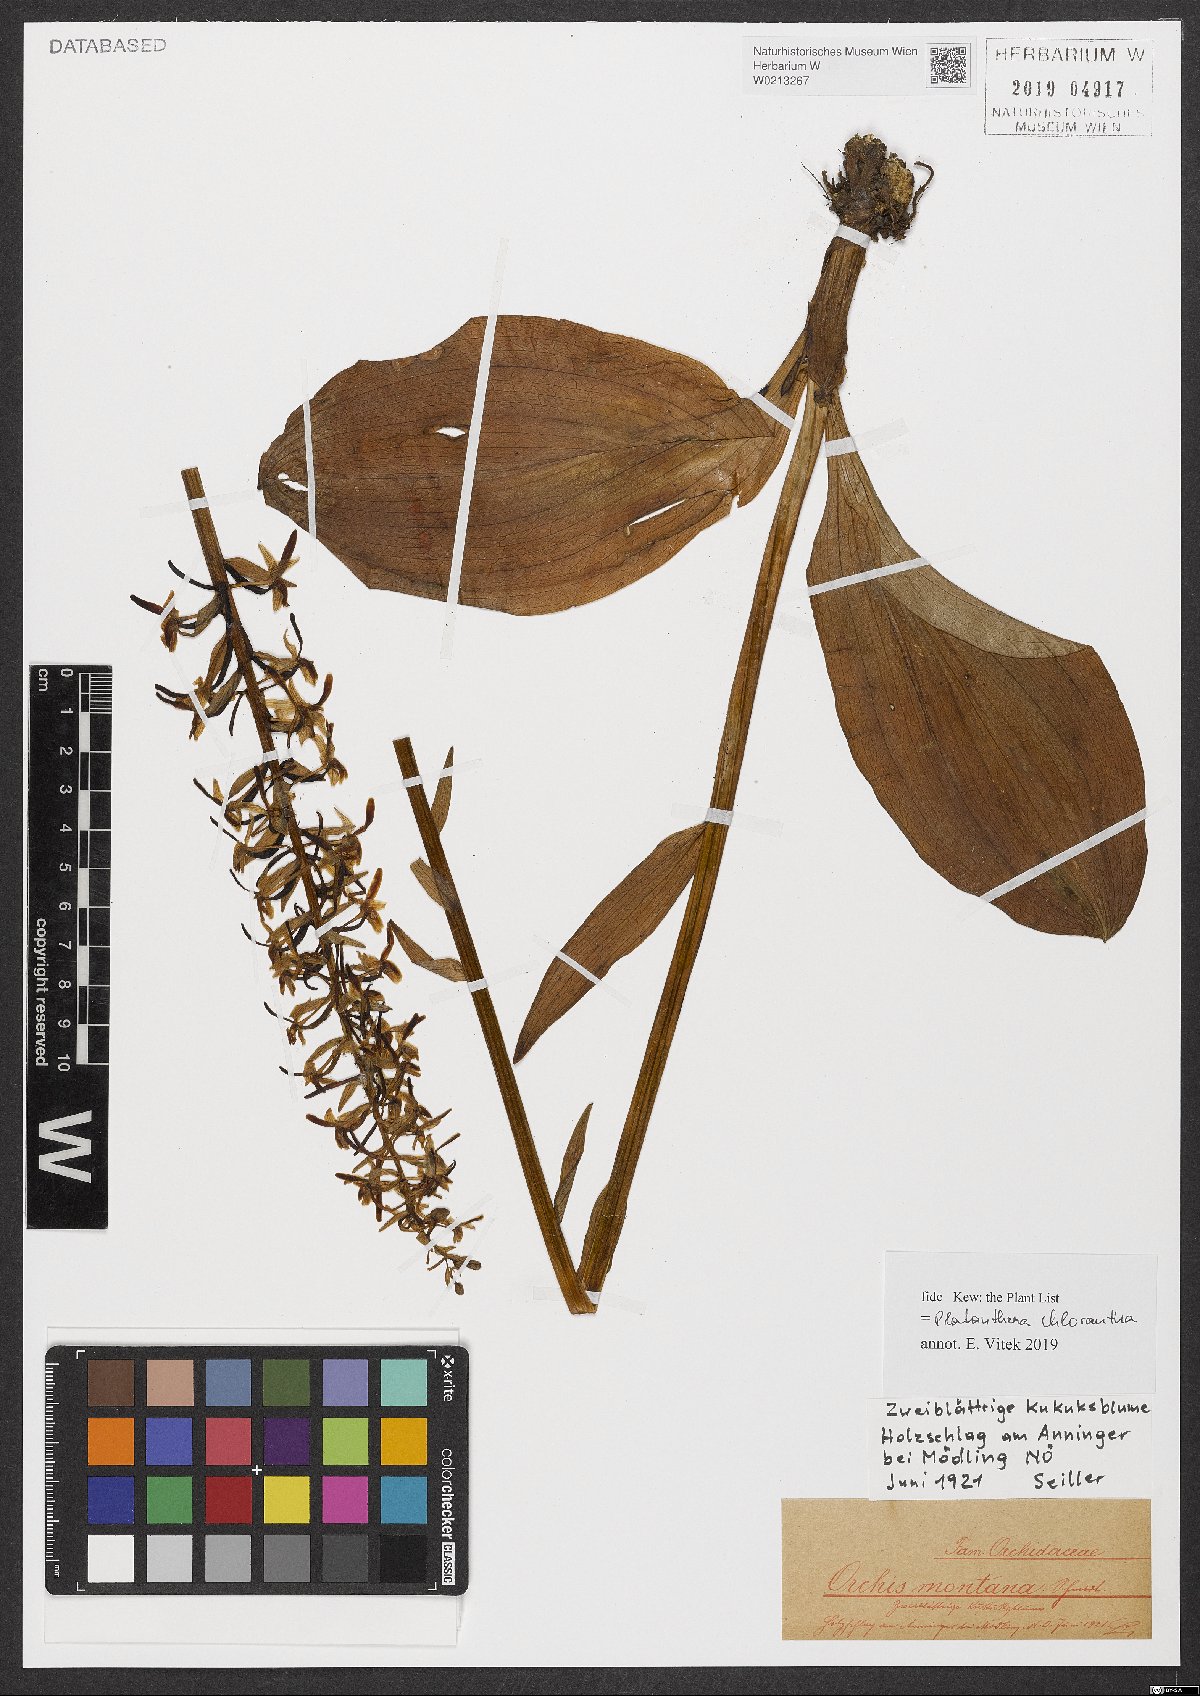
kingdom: Plantae
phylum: Tracheophyta
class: Liliopsida
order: Asparagales
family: Orchidaceae
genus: Platanthera
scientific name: Platanthera chlorantha
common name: Greater butterfly-orchid
